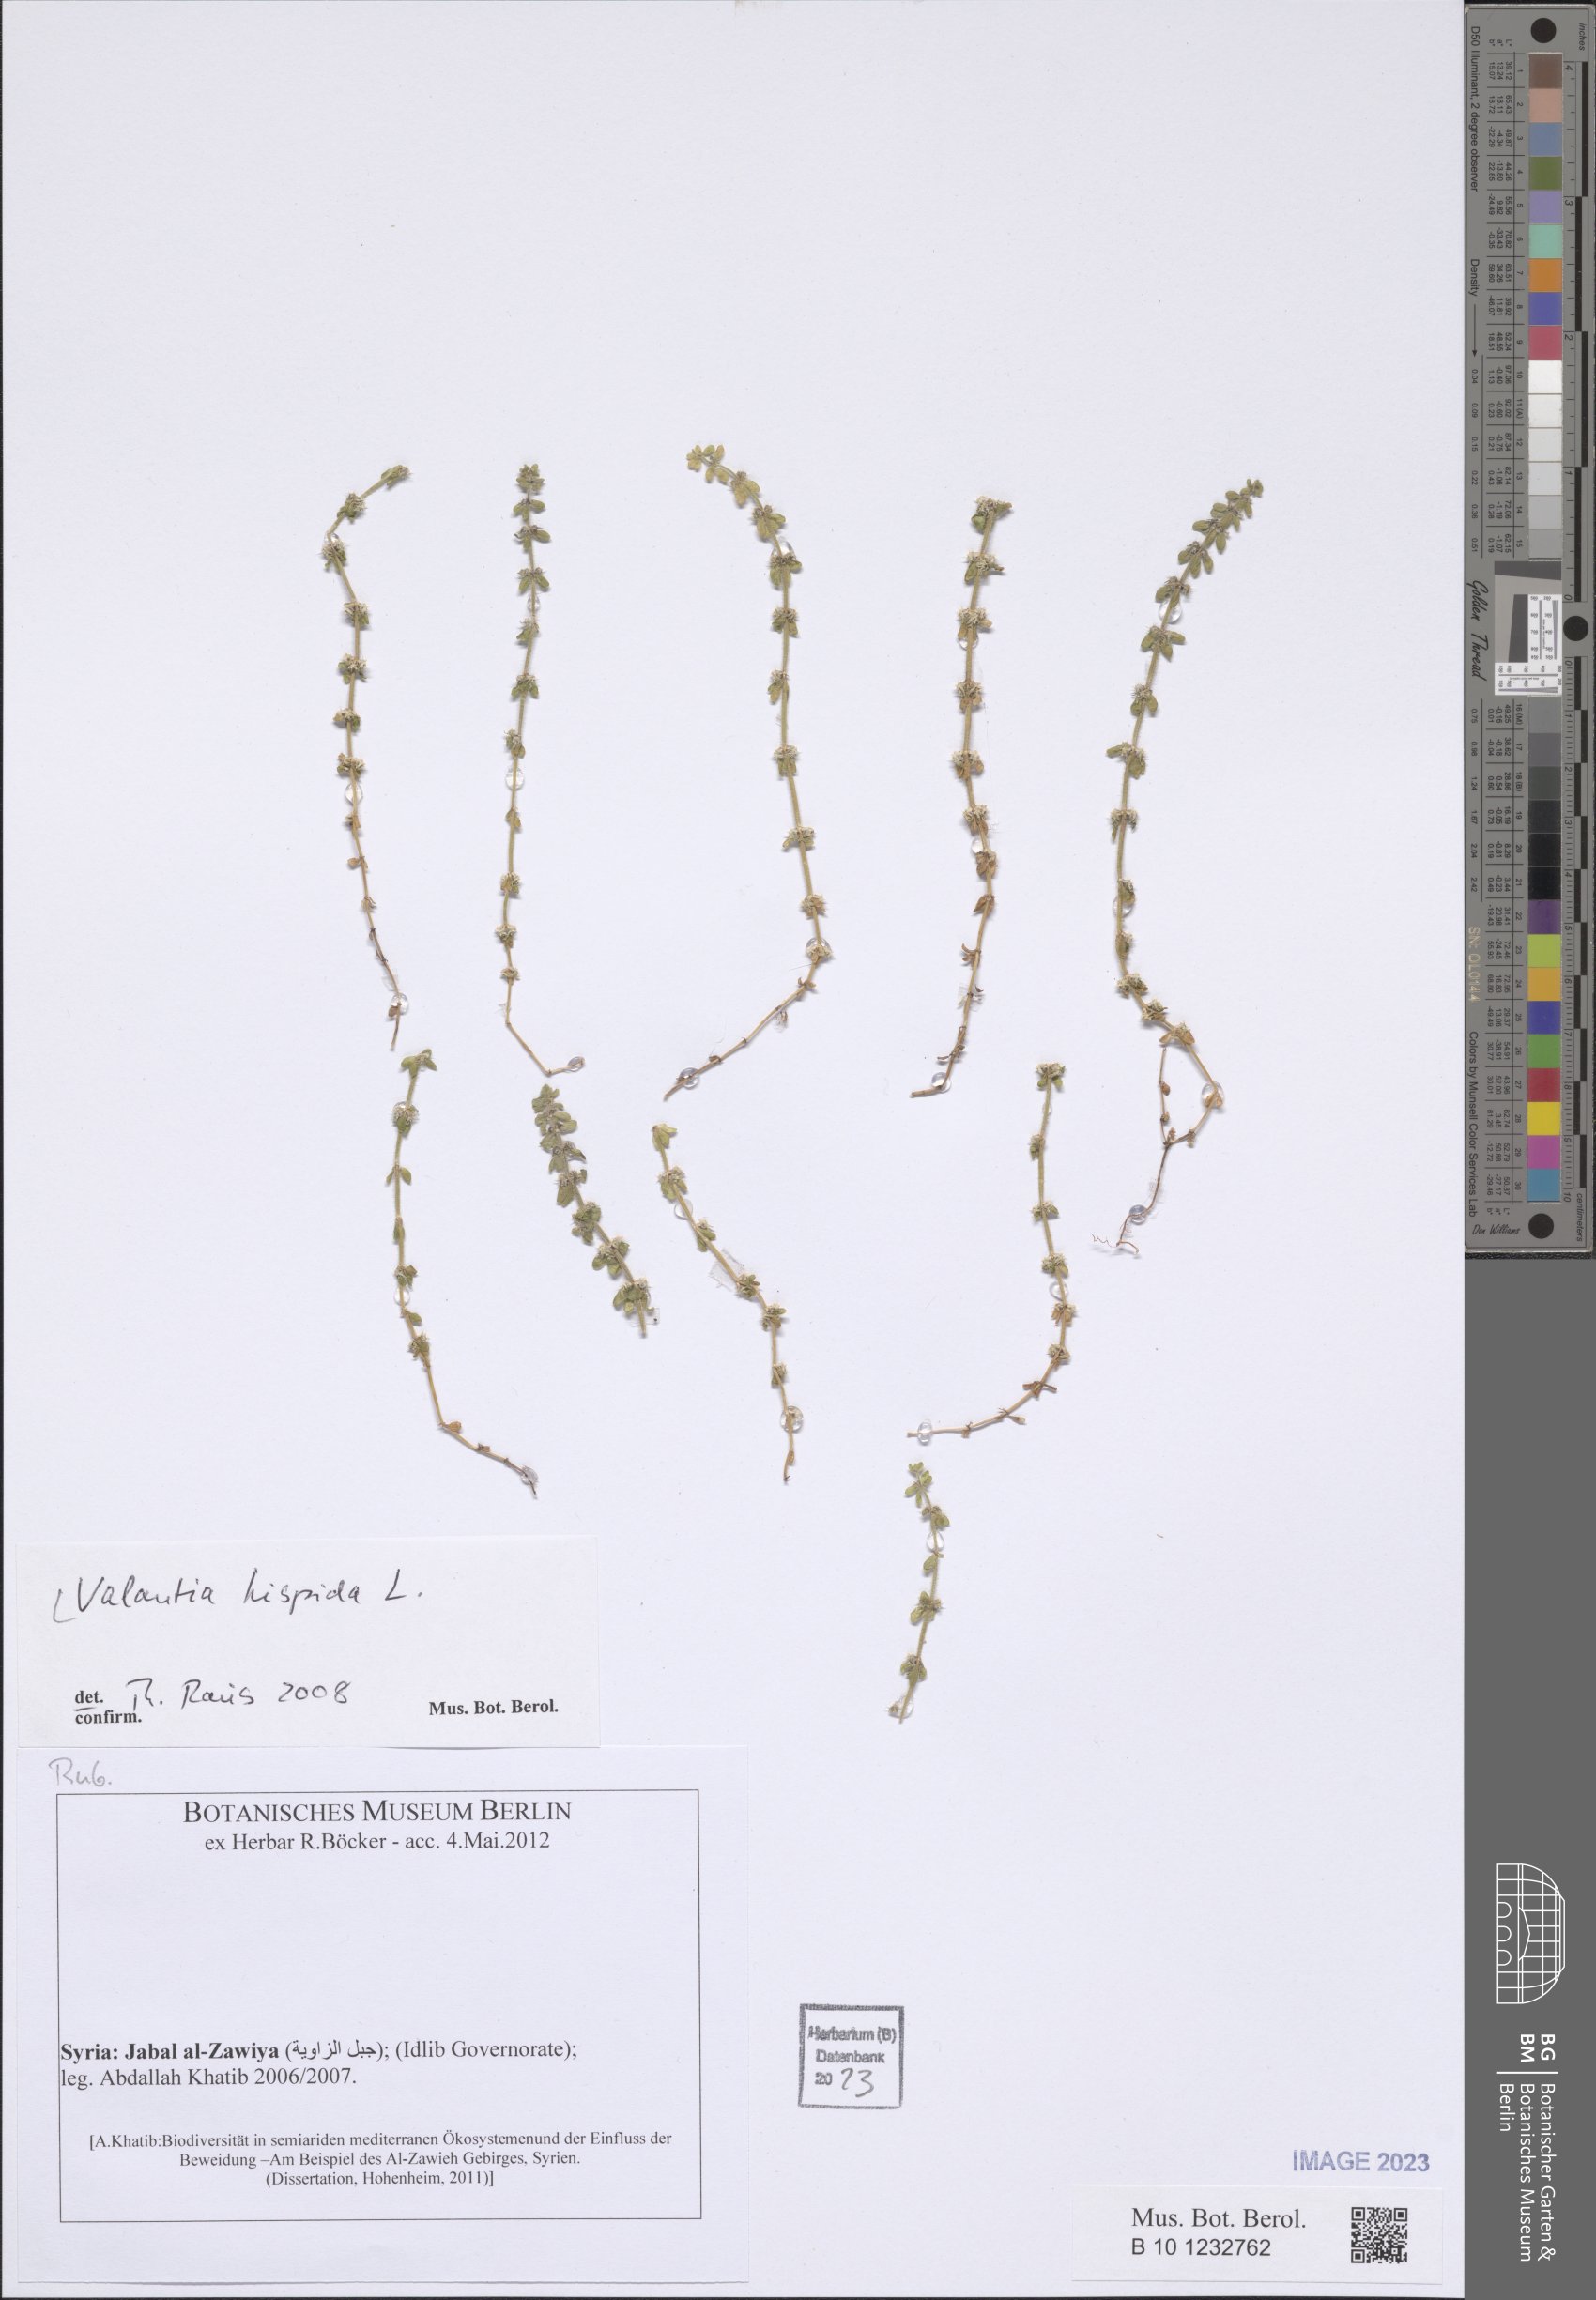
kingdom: Plantae
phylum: Tracheophyta
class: Magnoliopsida
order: Gentianales
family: Rubiaceae
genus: Valantia
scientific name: Valantia hispida
